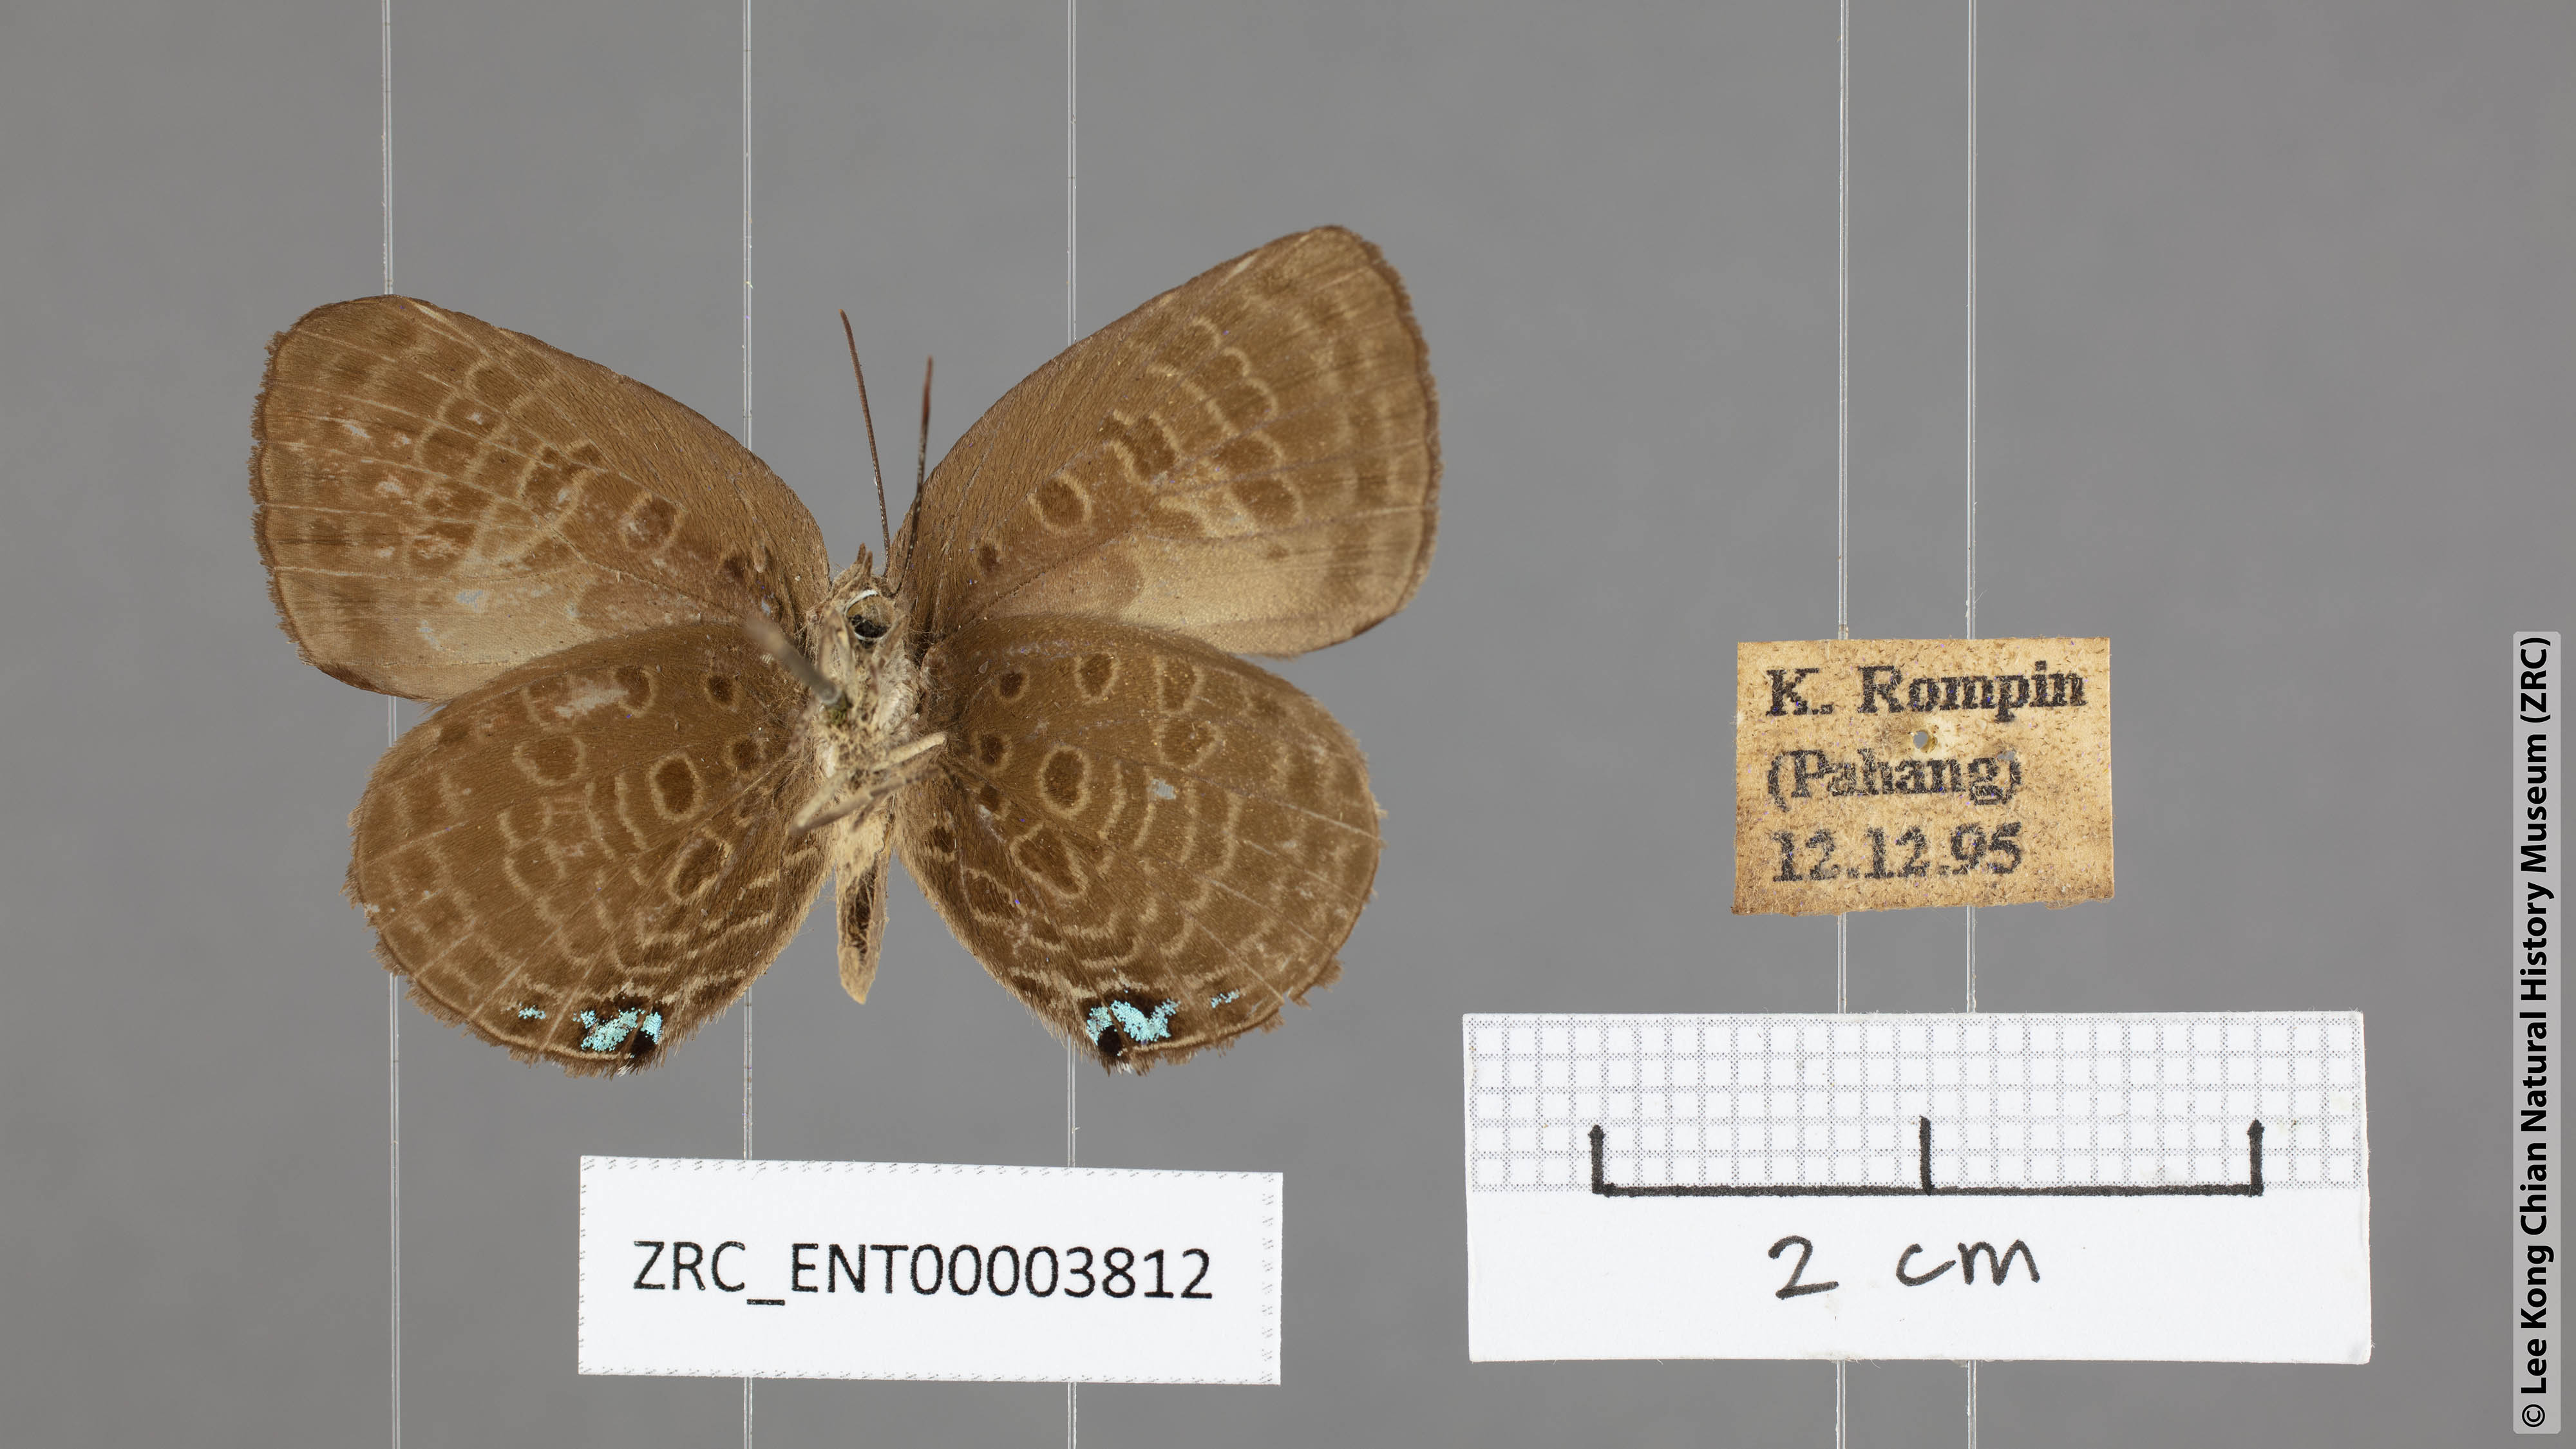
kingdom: Animalia
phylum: Arthropoda
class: Insecta
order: Lepidoptera
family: Lycaenidae
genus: Arhopala
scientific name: Arhopala agesilaus
